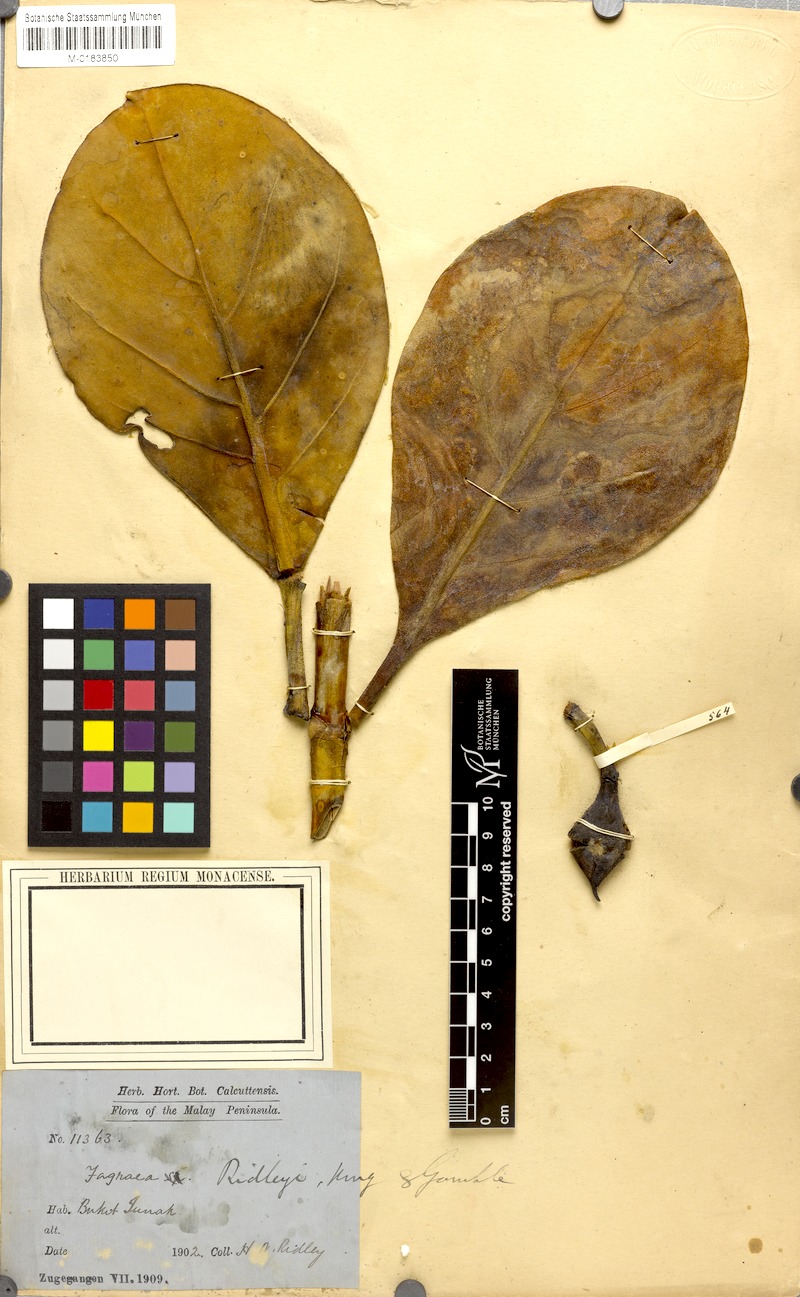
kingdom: Plantae
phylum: Tracheophyta
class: Magnoliopsida
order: Gentianales
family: Gentianaceae
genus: Fagraea
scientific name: Fagraea ridleyi
